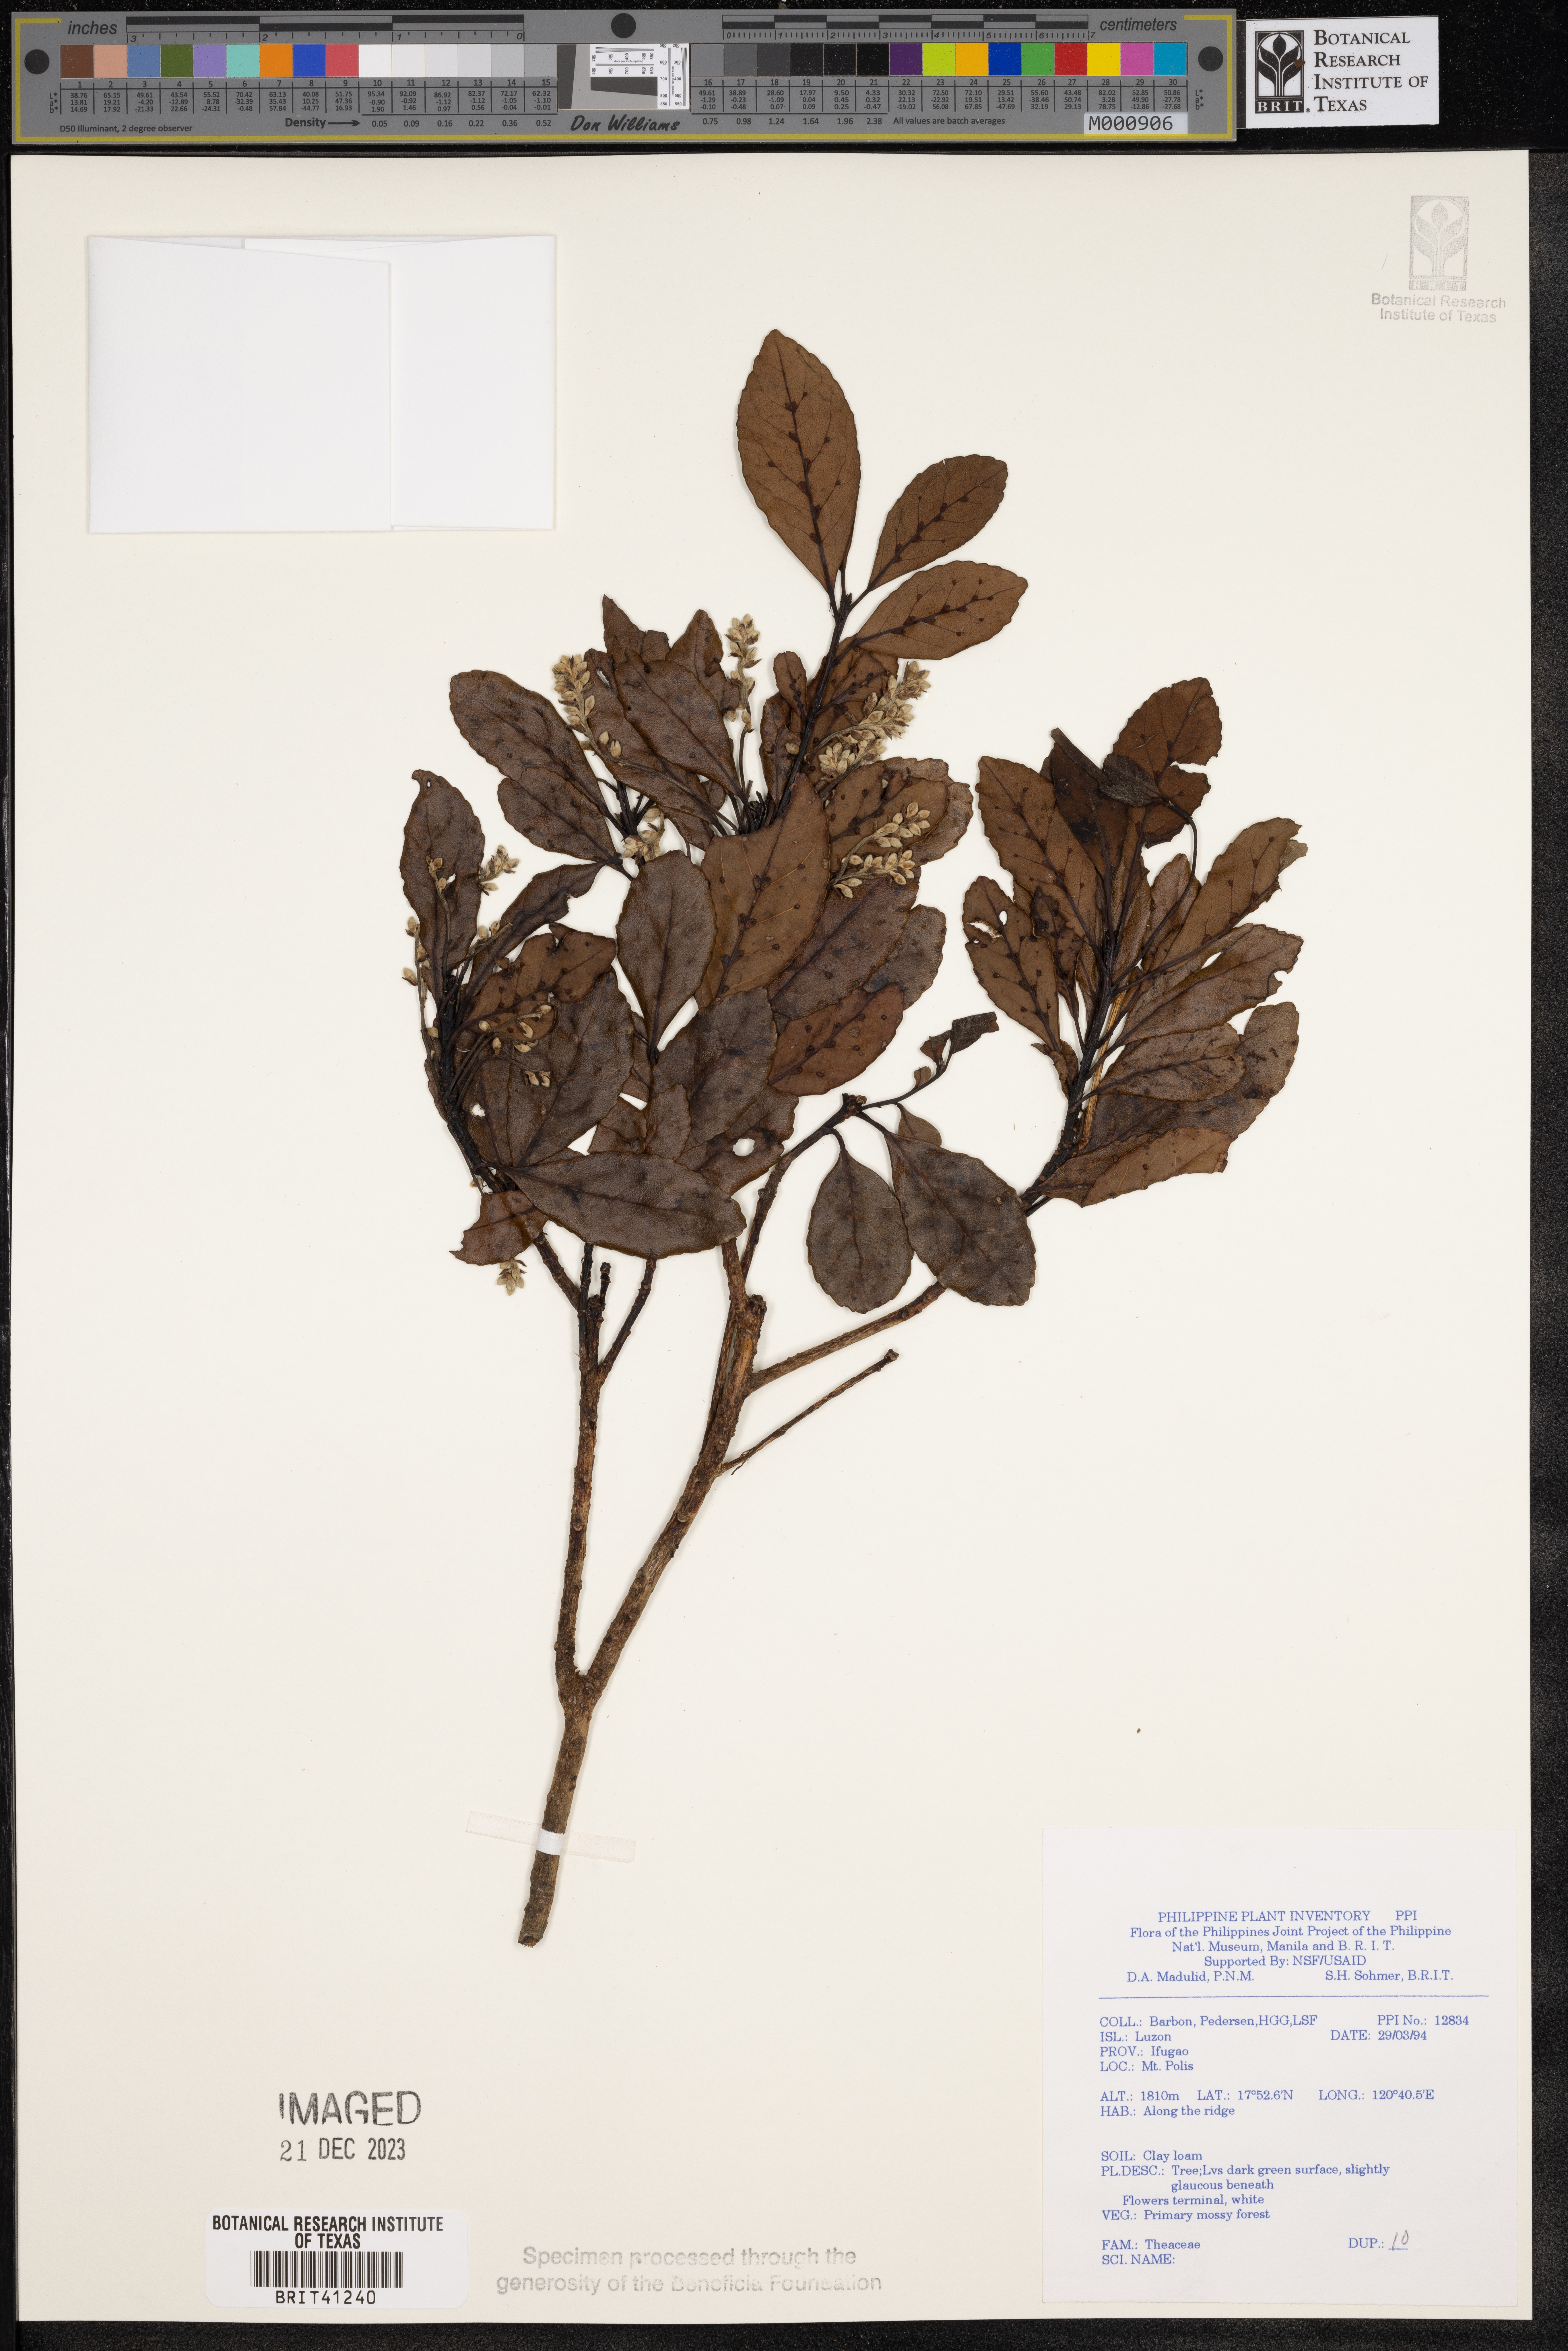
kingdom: Plantae
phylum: Tracheophyta
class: Magnoliopsida
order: Ericales
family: Theaceae
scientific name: Theaceae
